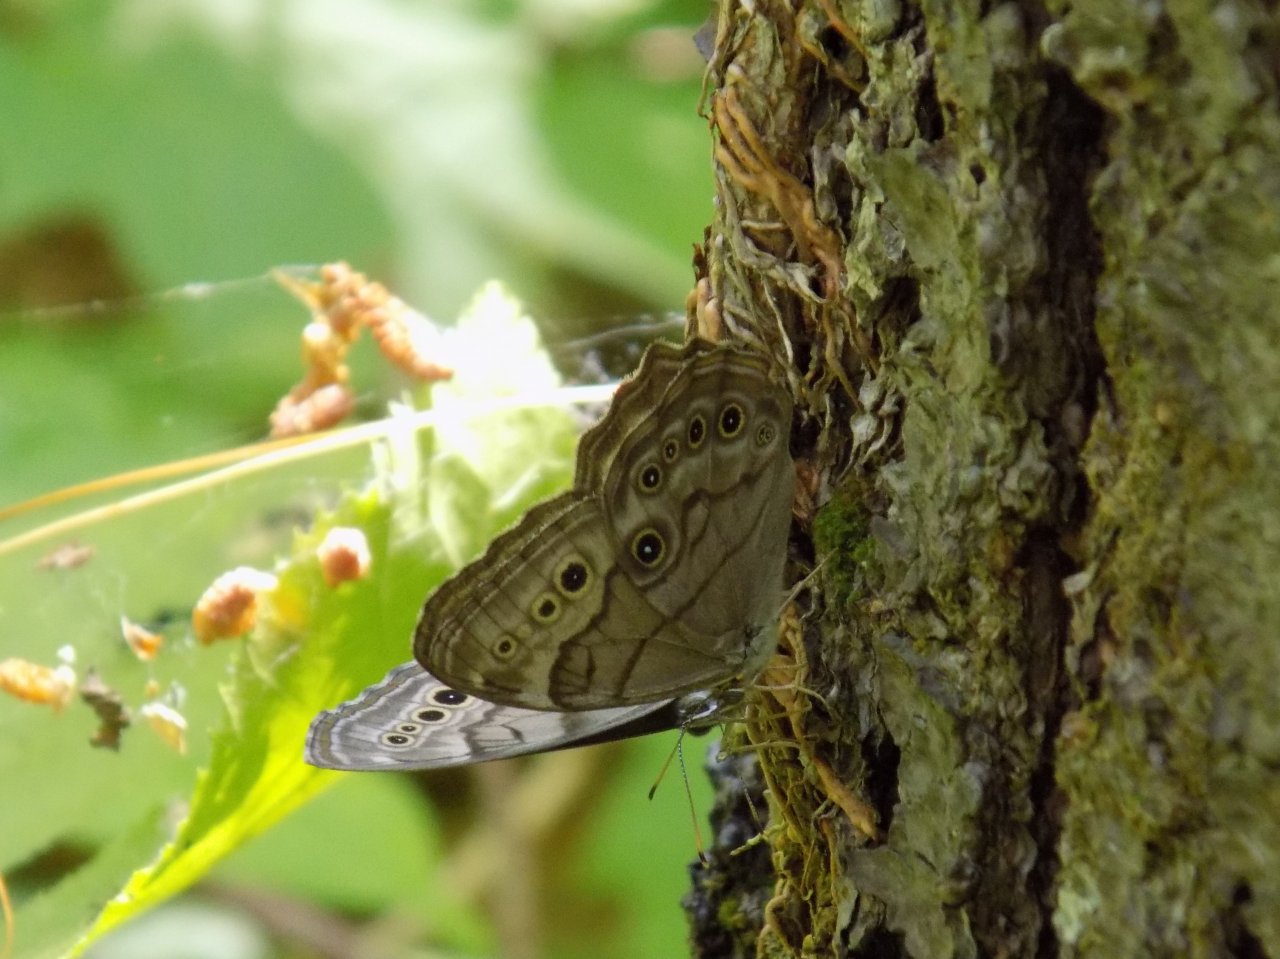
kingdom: Animalia
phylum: Arthropoda
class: Insecta
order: Lepidoptera
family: Nymphalidae
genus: Lethe
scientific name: Lethe anthedon
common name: Northern Pearly-Eye
